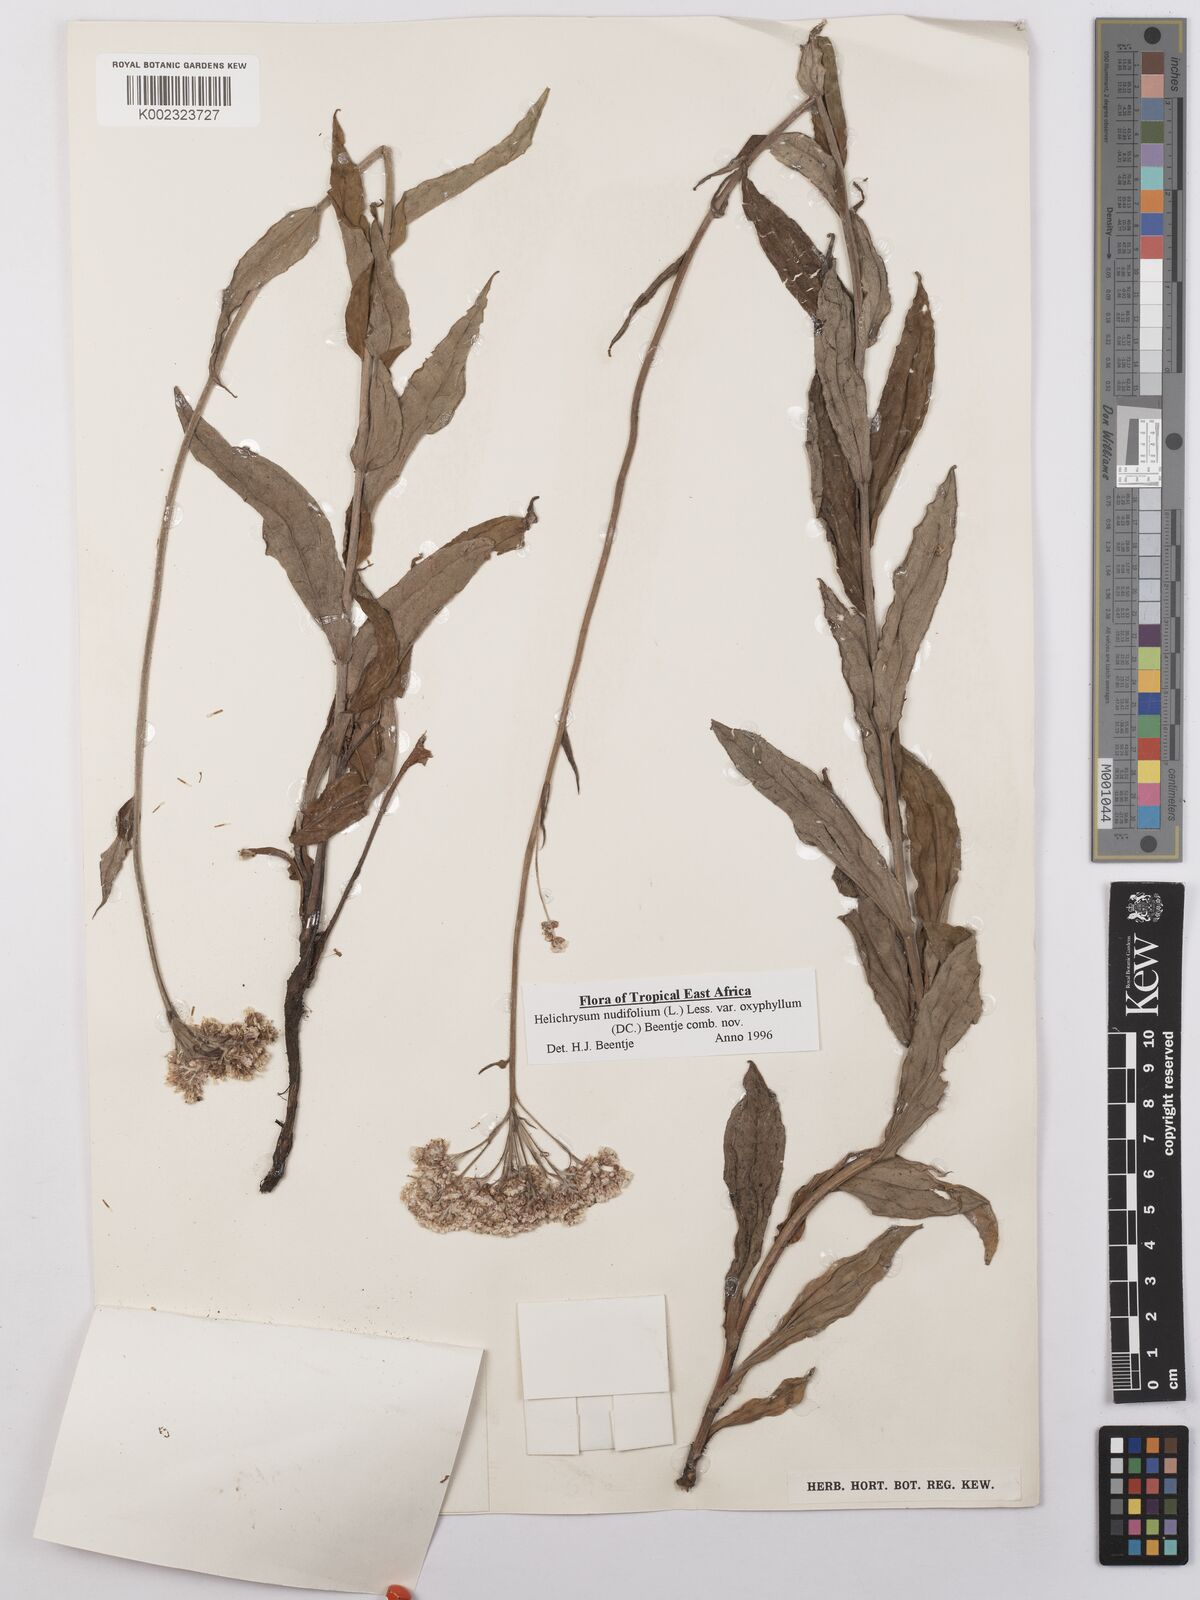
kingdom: Plantae
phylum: Tracheophyta
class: Magnoliopsida
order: Asterales
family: Asteraceae
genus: Helichrysum
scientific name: Helichrysum nudifolium
